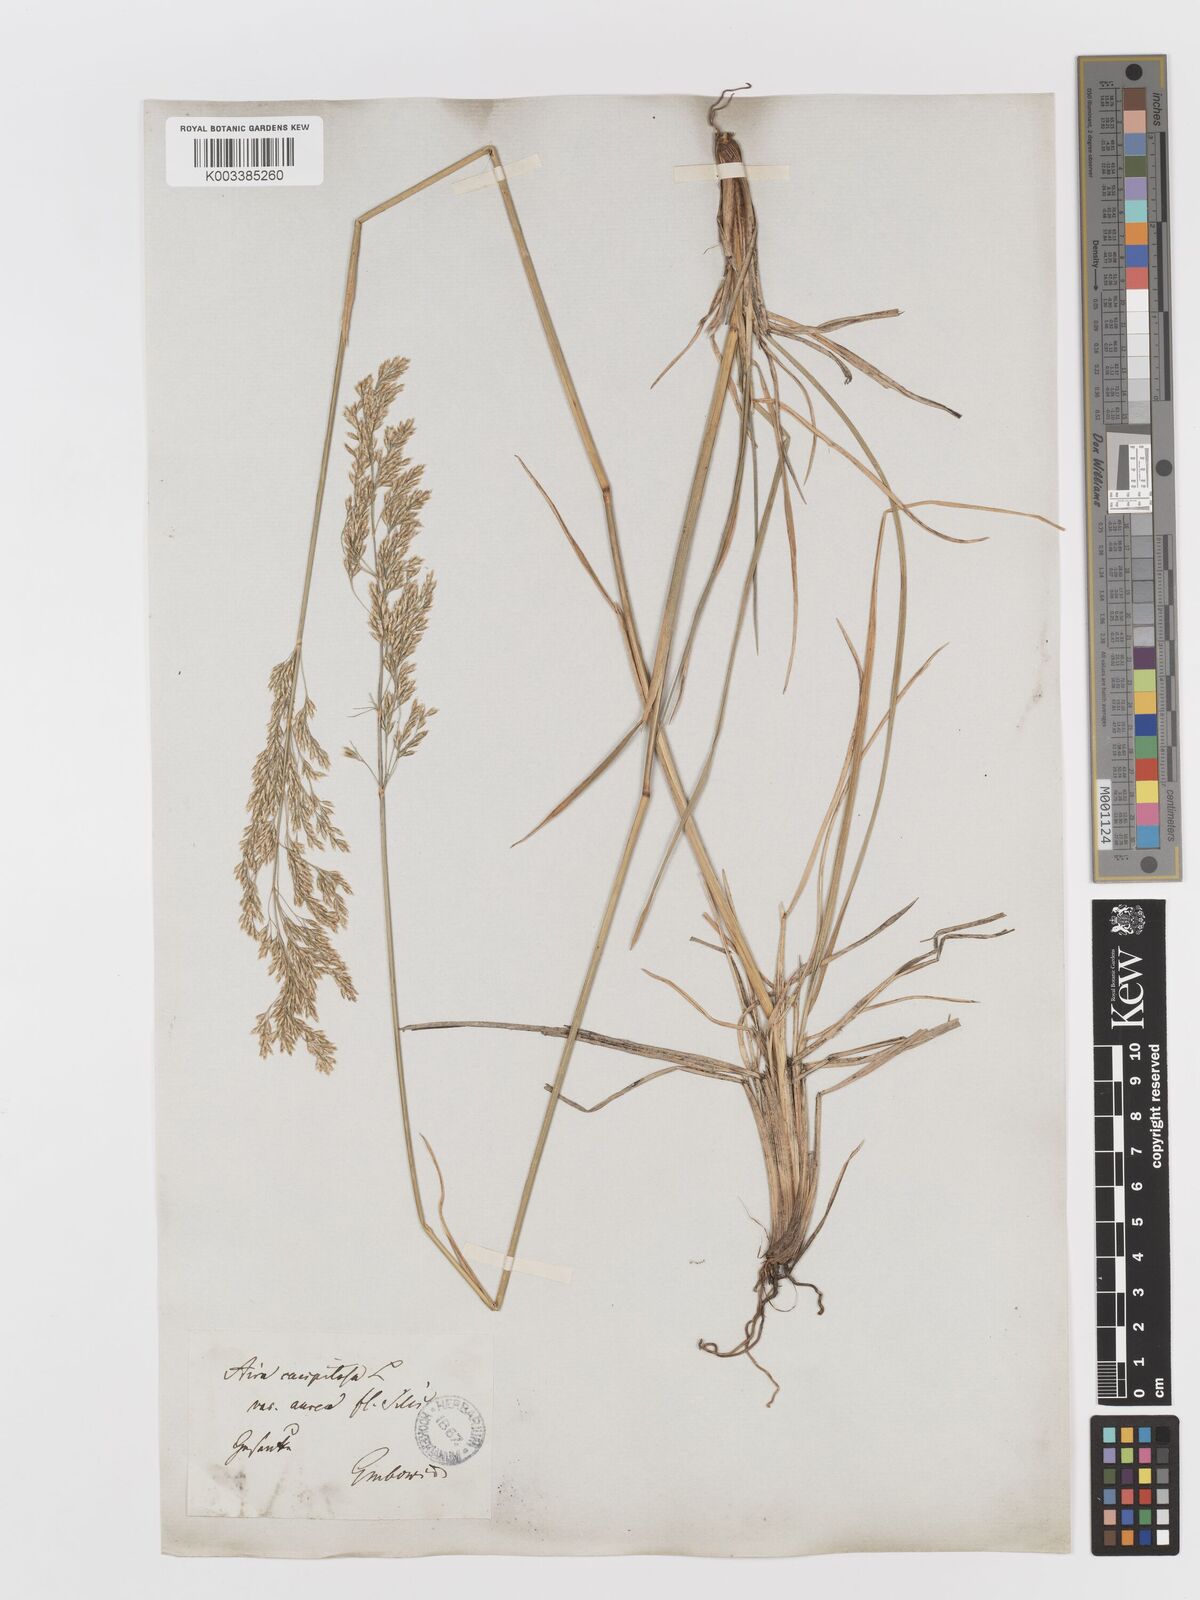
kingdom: Plantae
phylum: Tracheophyta
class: Liliopsida
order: Poales
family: Poaceae
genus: Deschampsia
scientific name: Deschampsia cespitosa
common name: Tufted hair-grass
